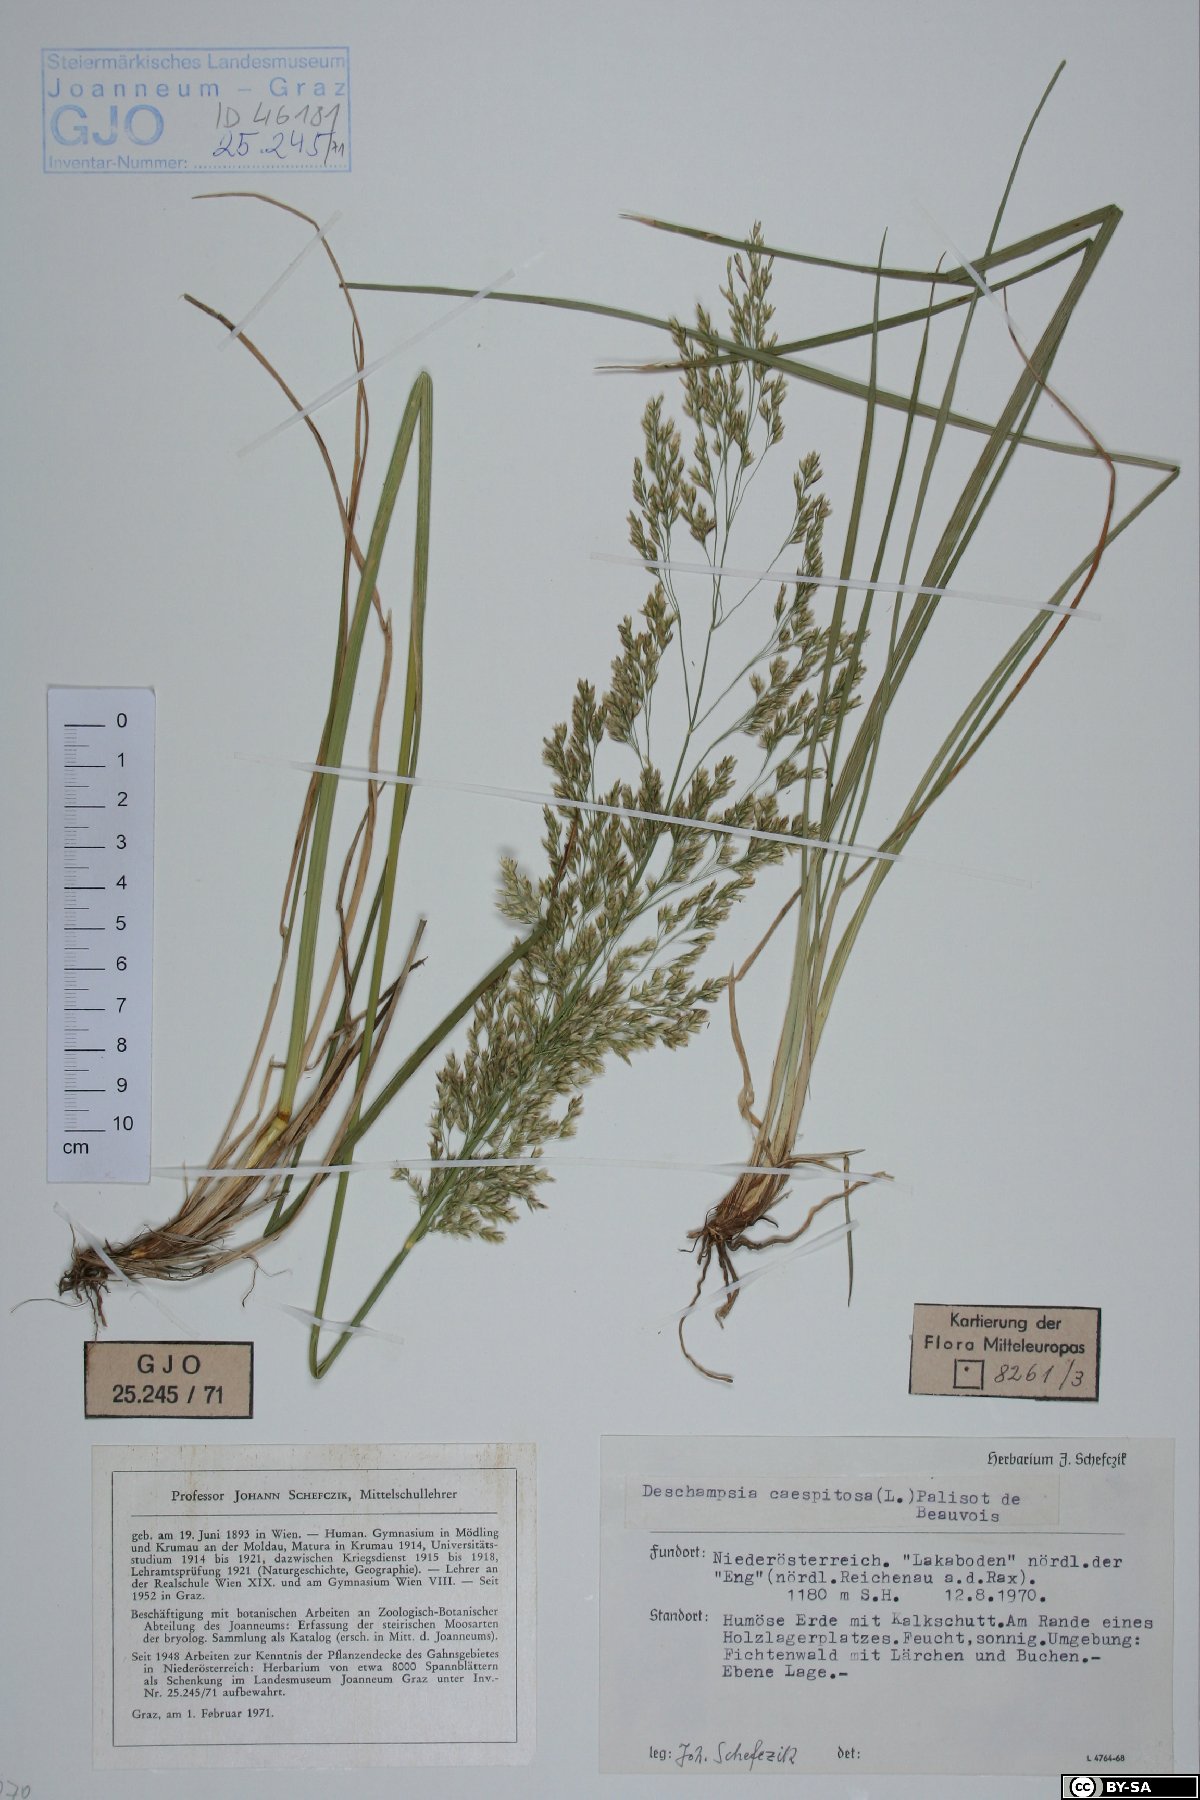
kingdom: Plantae
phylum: Tracheophyta
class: Liliopsida
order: Poales
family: Poaceae
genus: Deschampsia
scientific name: Deschampsia cespitosa
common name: Tufted hair-grass
